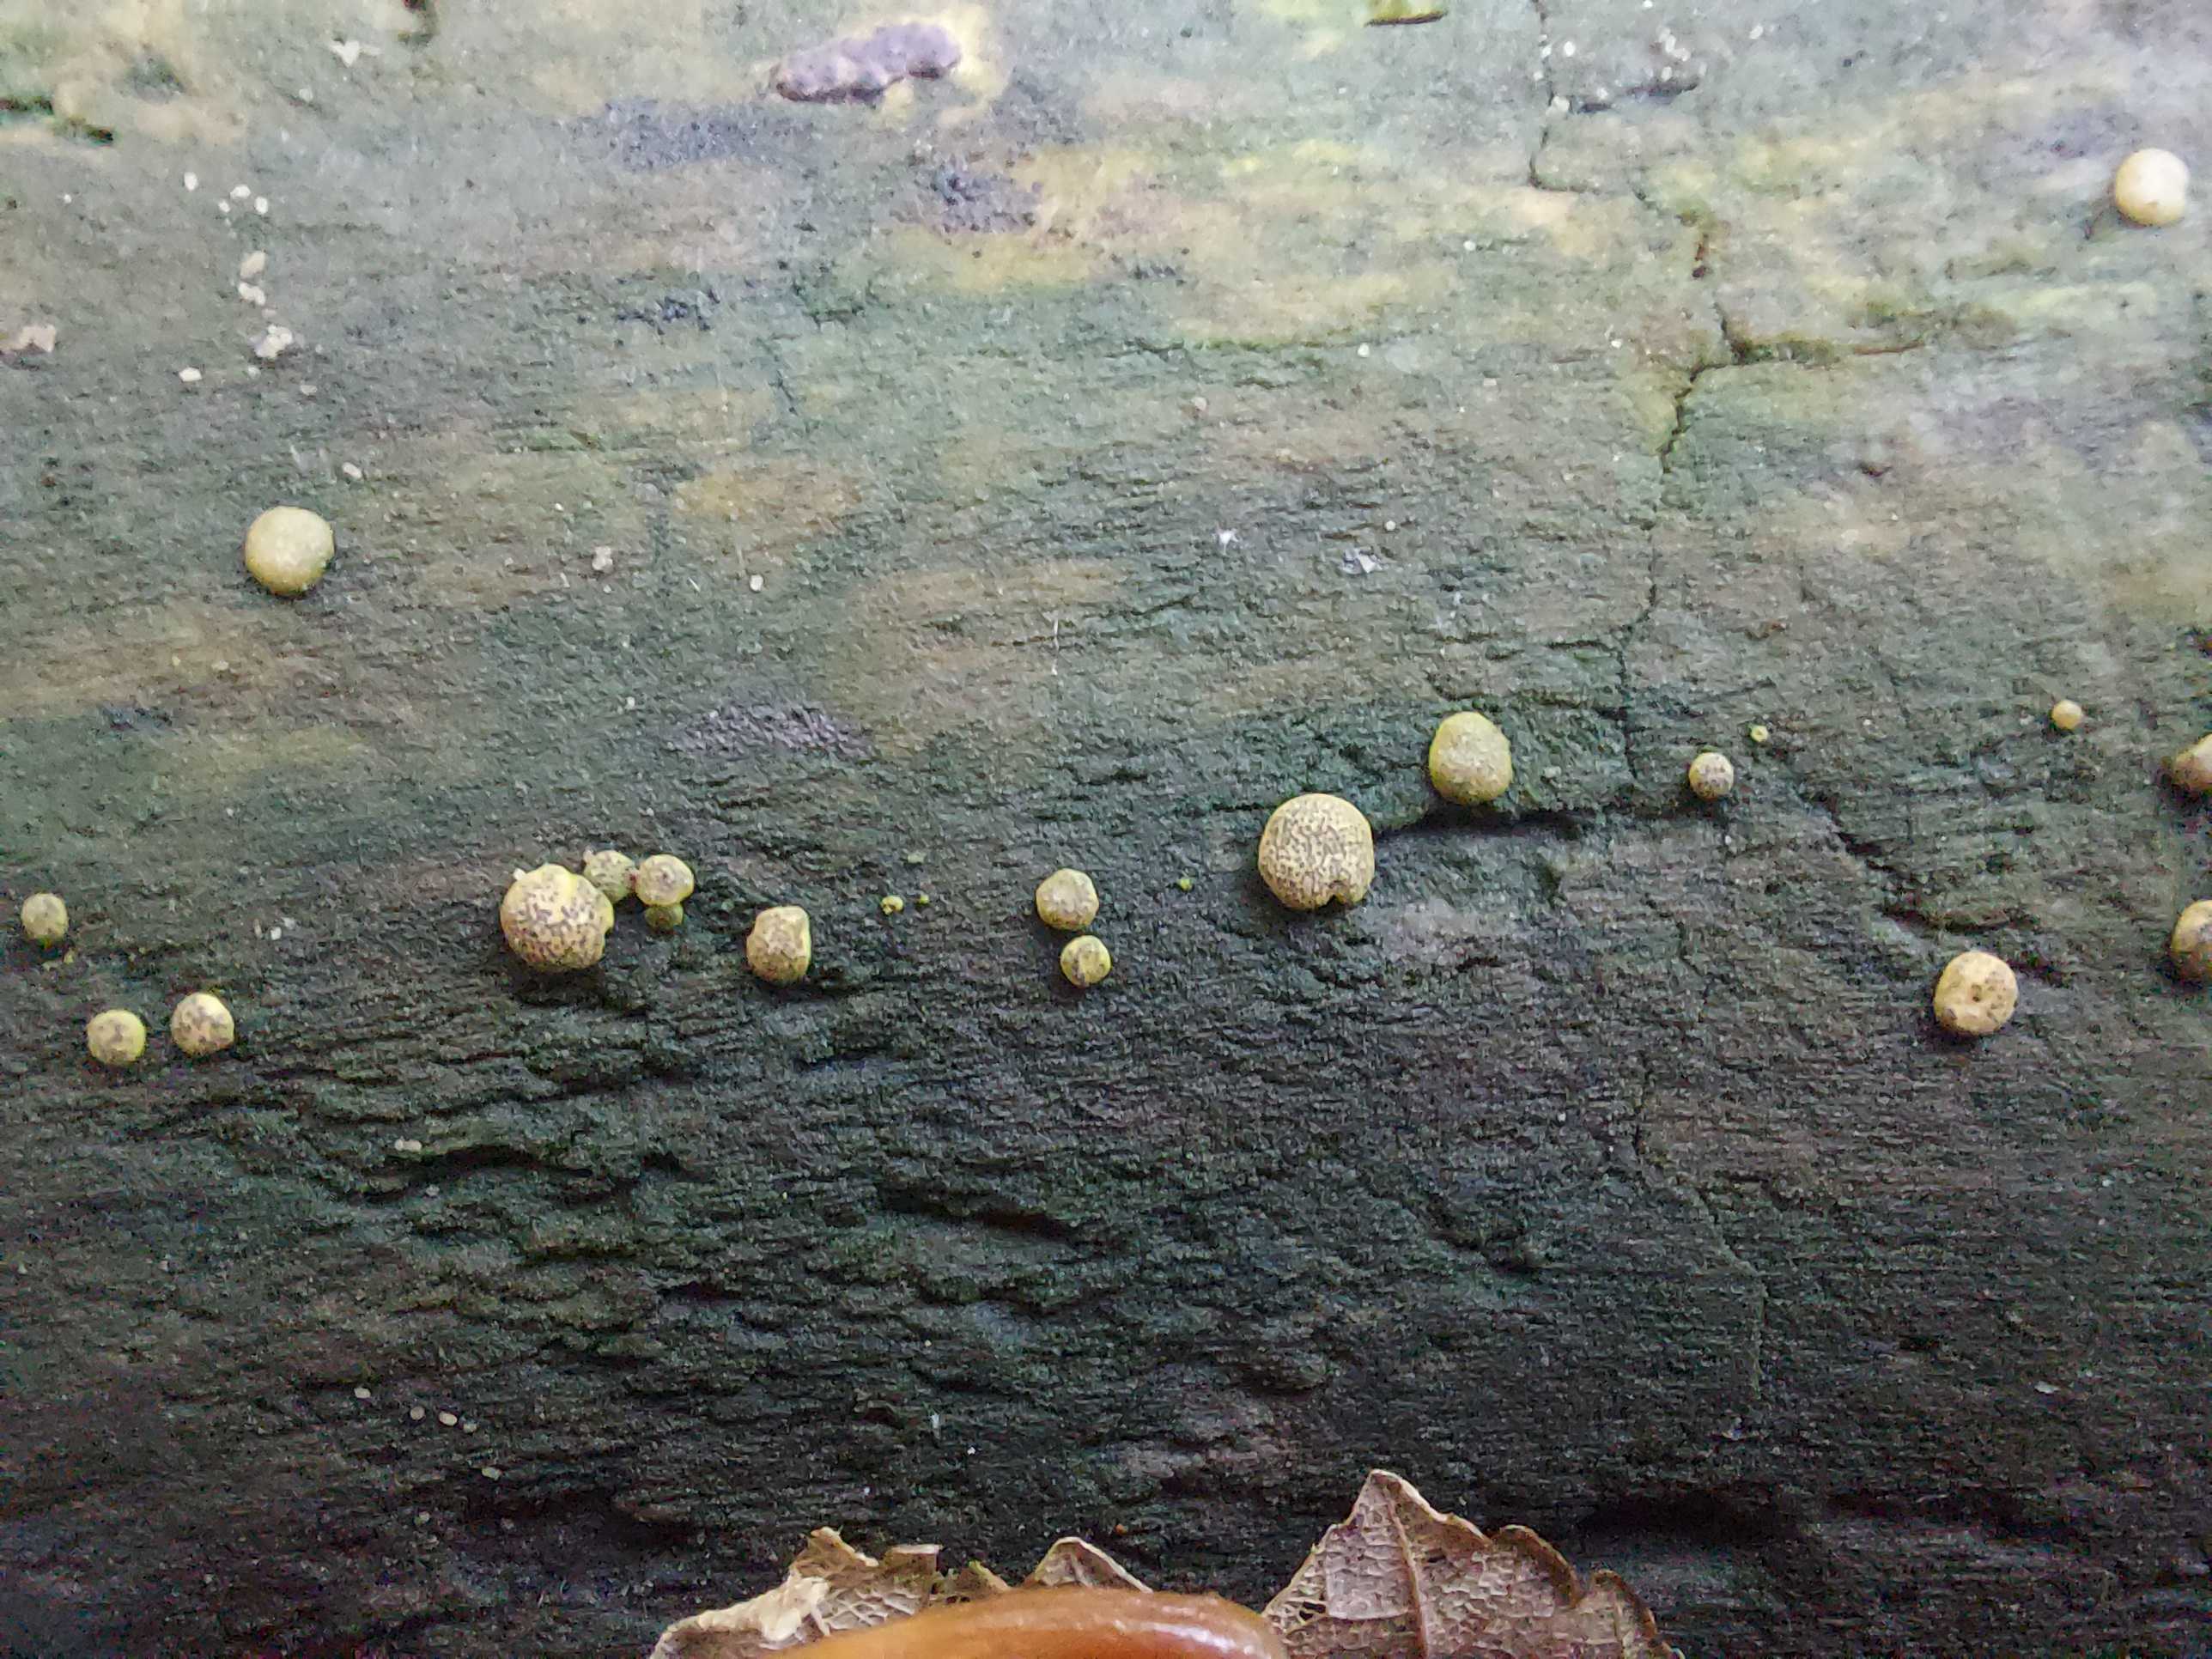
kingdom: Fungi
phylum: Ascomycota
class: Sordariomycetes
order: Hypocreales
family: Hypocreaceae
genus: Trichoderma
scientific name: Trichoderma
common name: kødkerne
